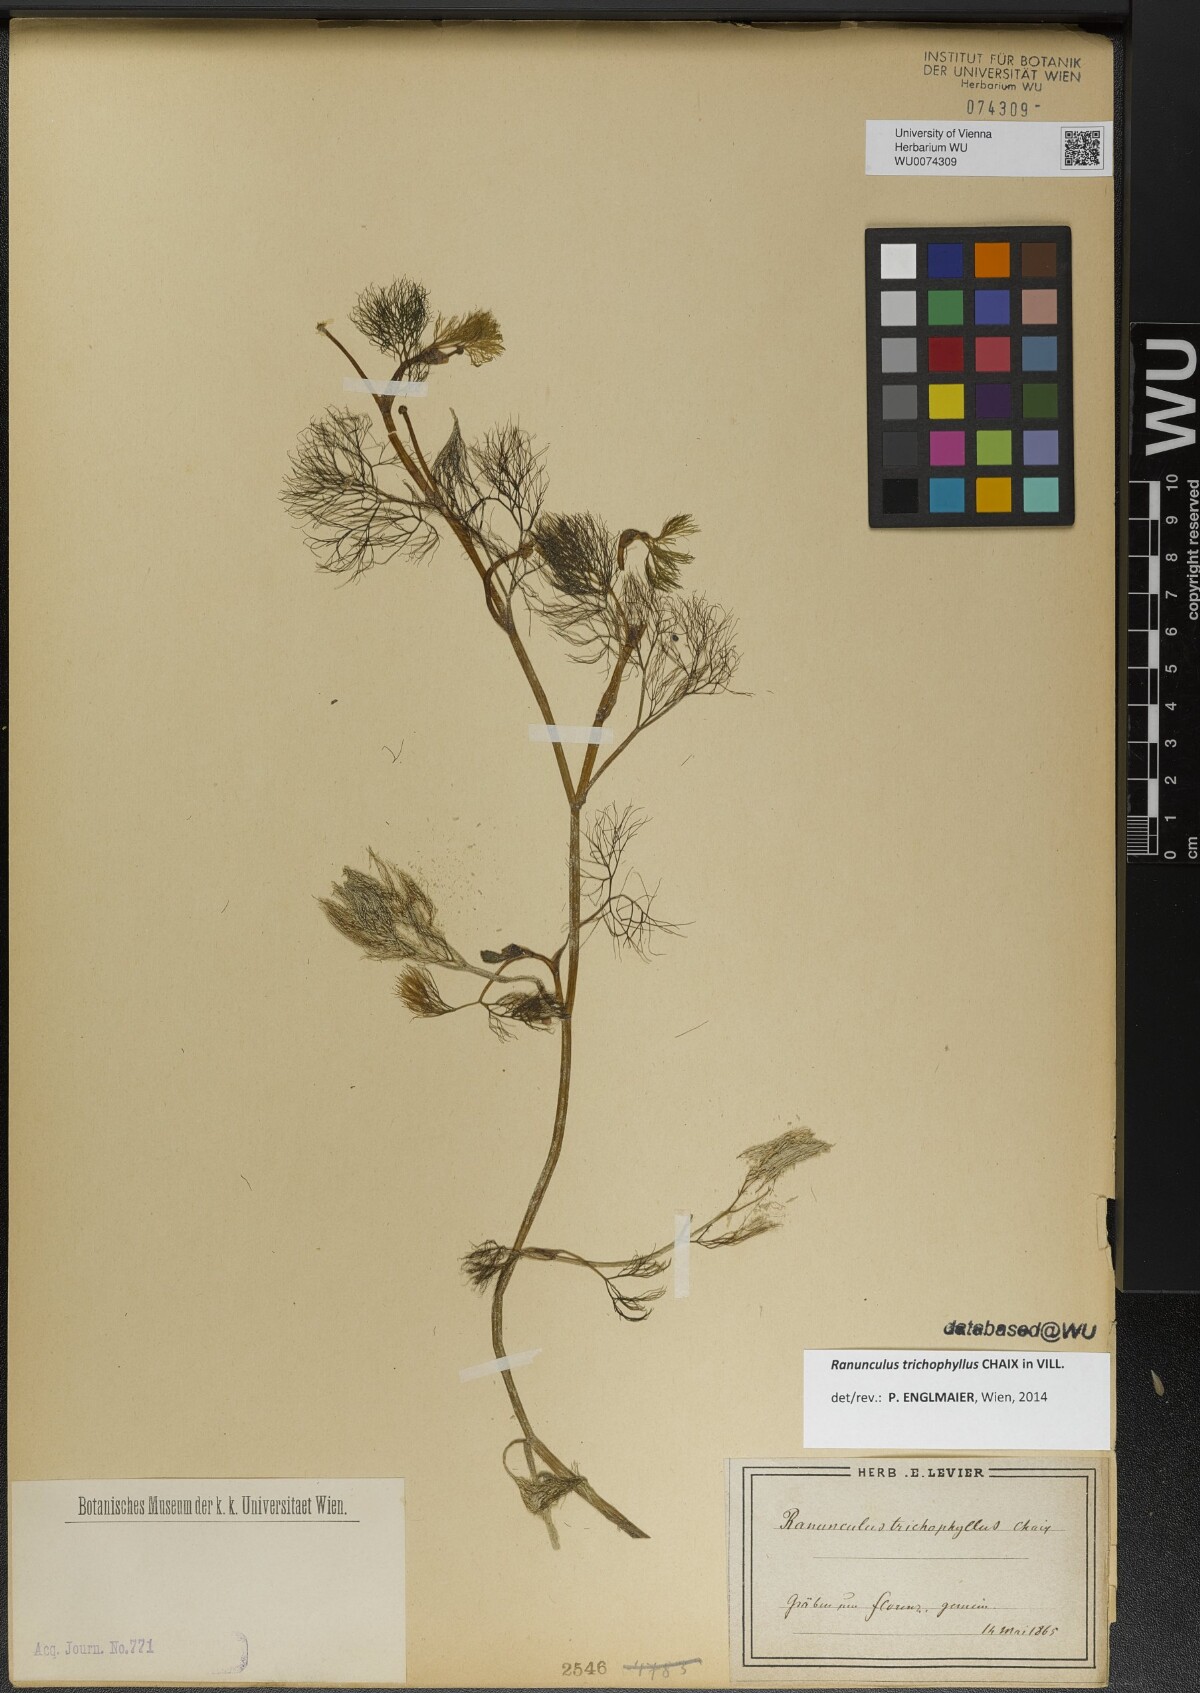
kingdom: Plantae
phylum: Tracheophyta
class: Magnoliopsida
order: Ranunculales
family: Ranunculaceae
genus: Ranunculus
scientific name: Ranunculus trichophyllus
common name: Thread-leaved water-crowfoot
